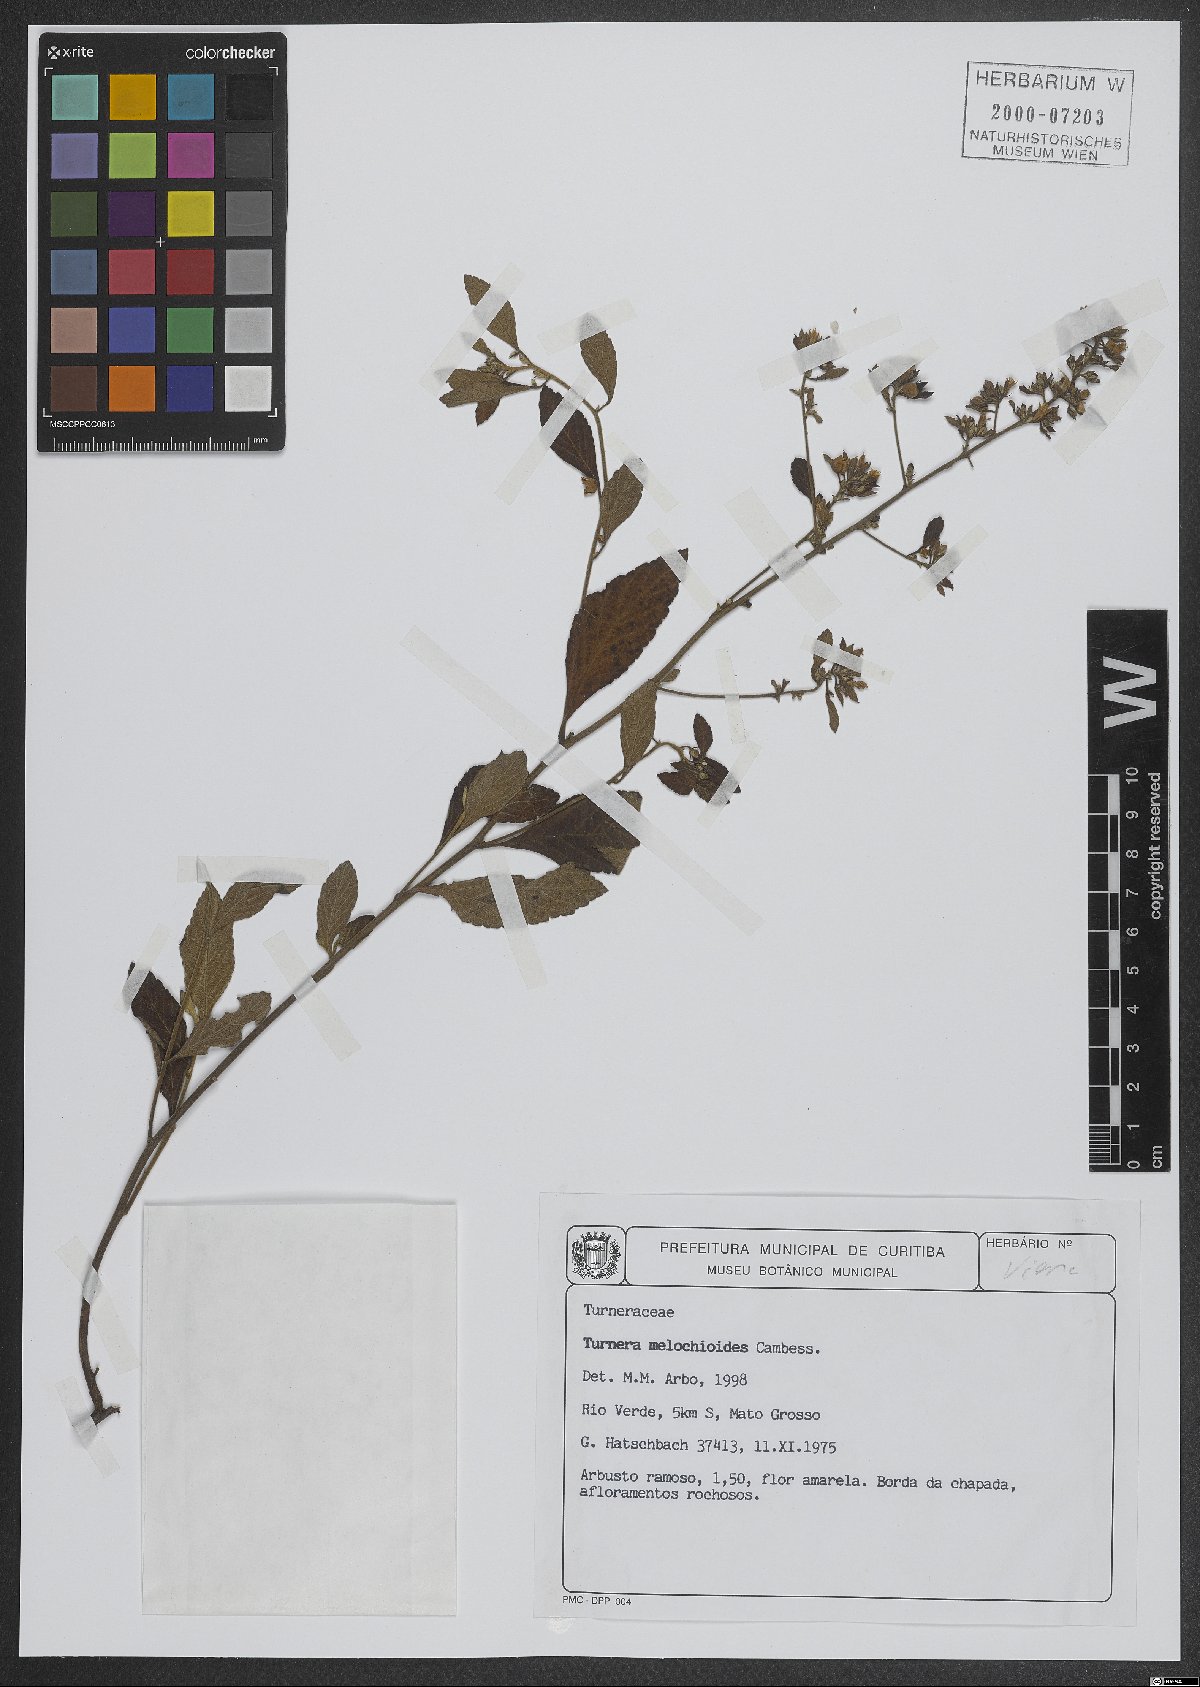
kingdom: Plantae
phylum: Tracheophyta
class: Magnoliopsida
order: Malpighiales
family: Turneraceae
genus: Turnera
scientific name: Turnera melochioides
